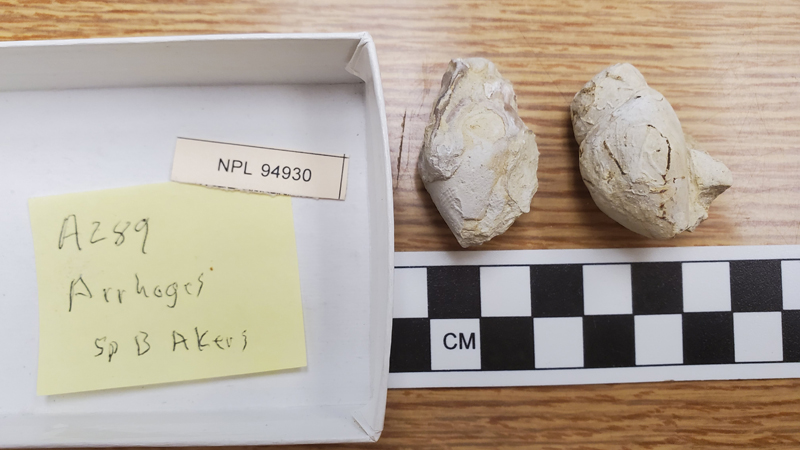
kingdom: Animalia
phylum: Mollusca
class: Gastropoda
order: Littorinimorpha
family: Aporrhaidae
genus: Arrhoges
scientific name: Arrhoges
